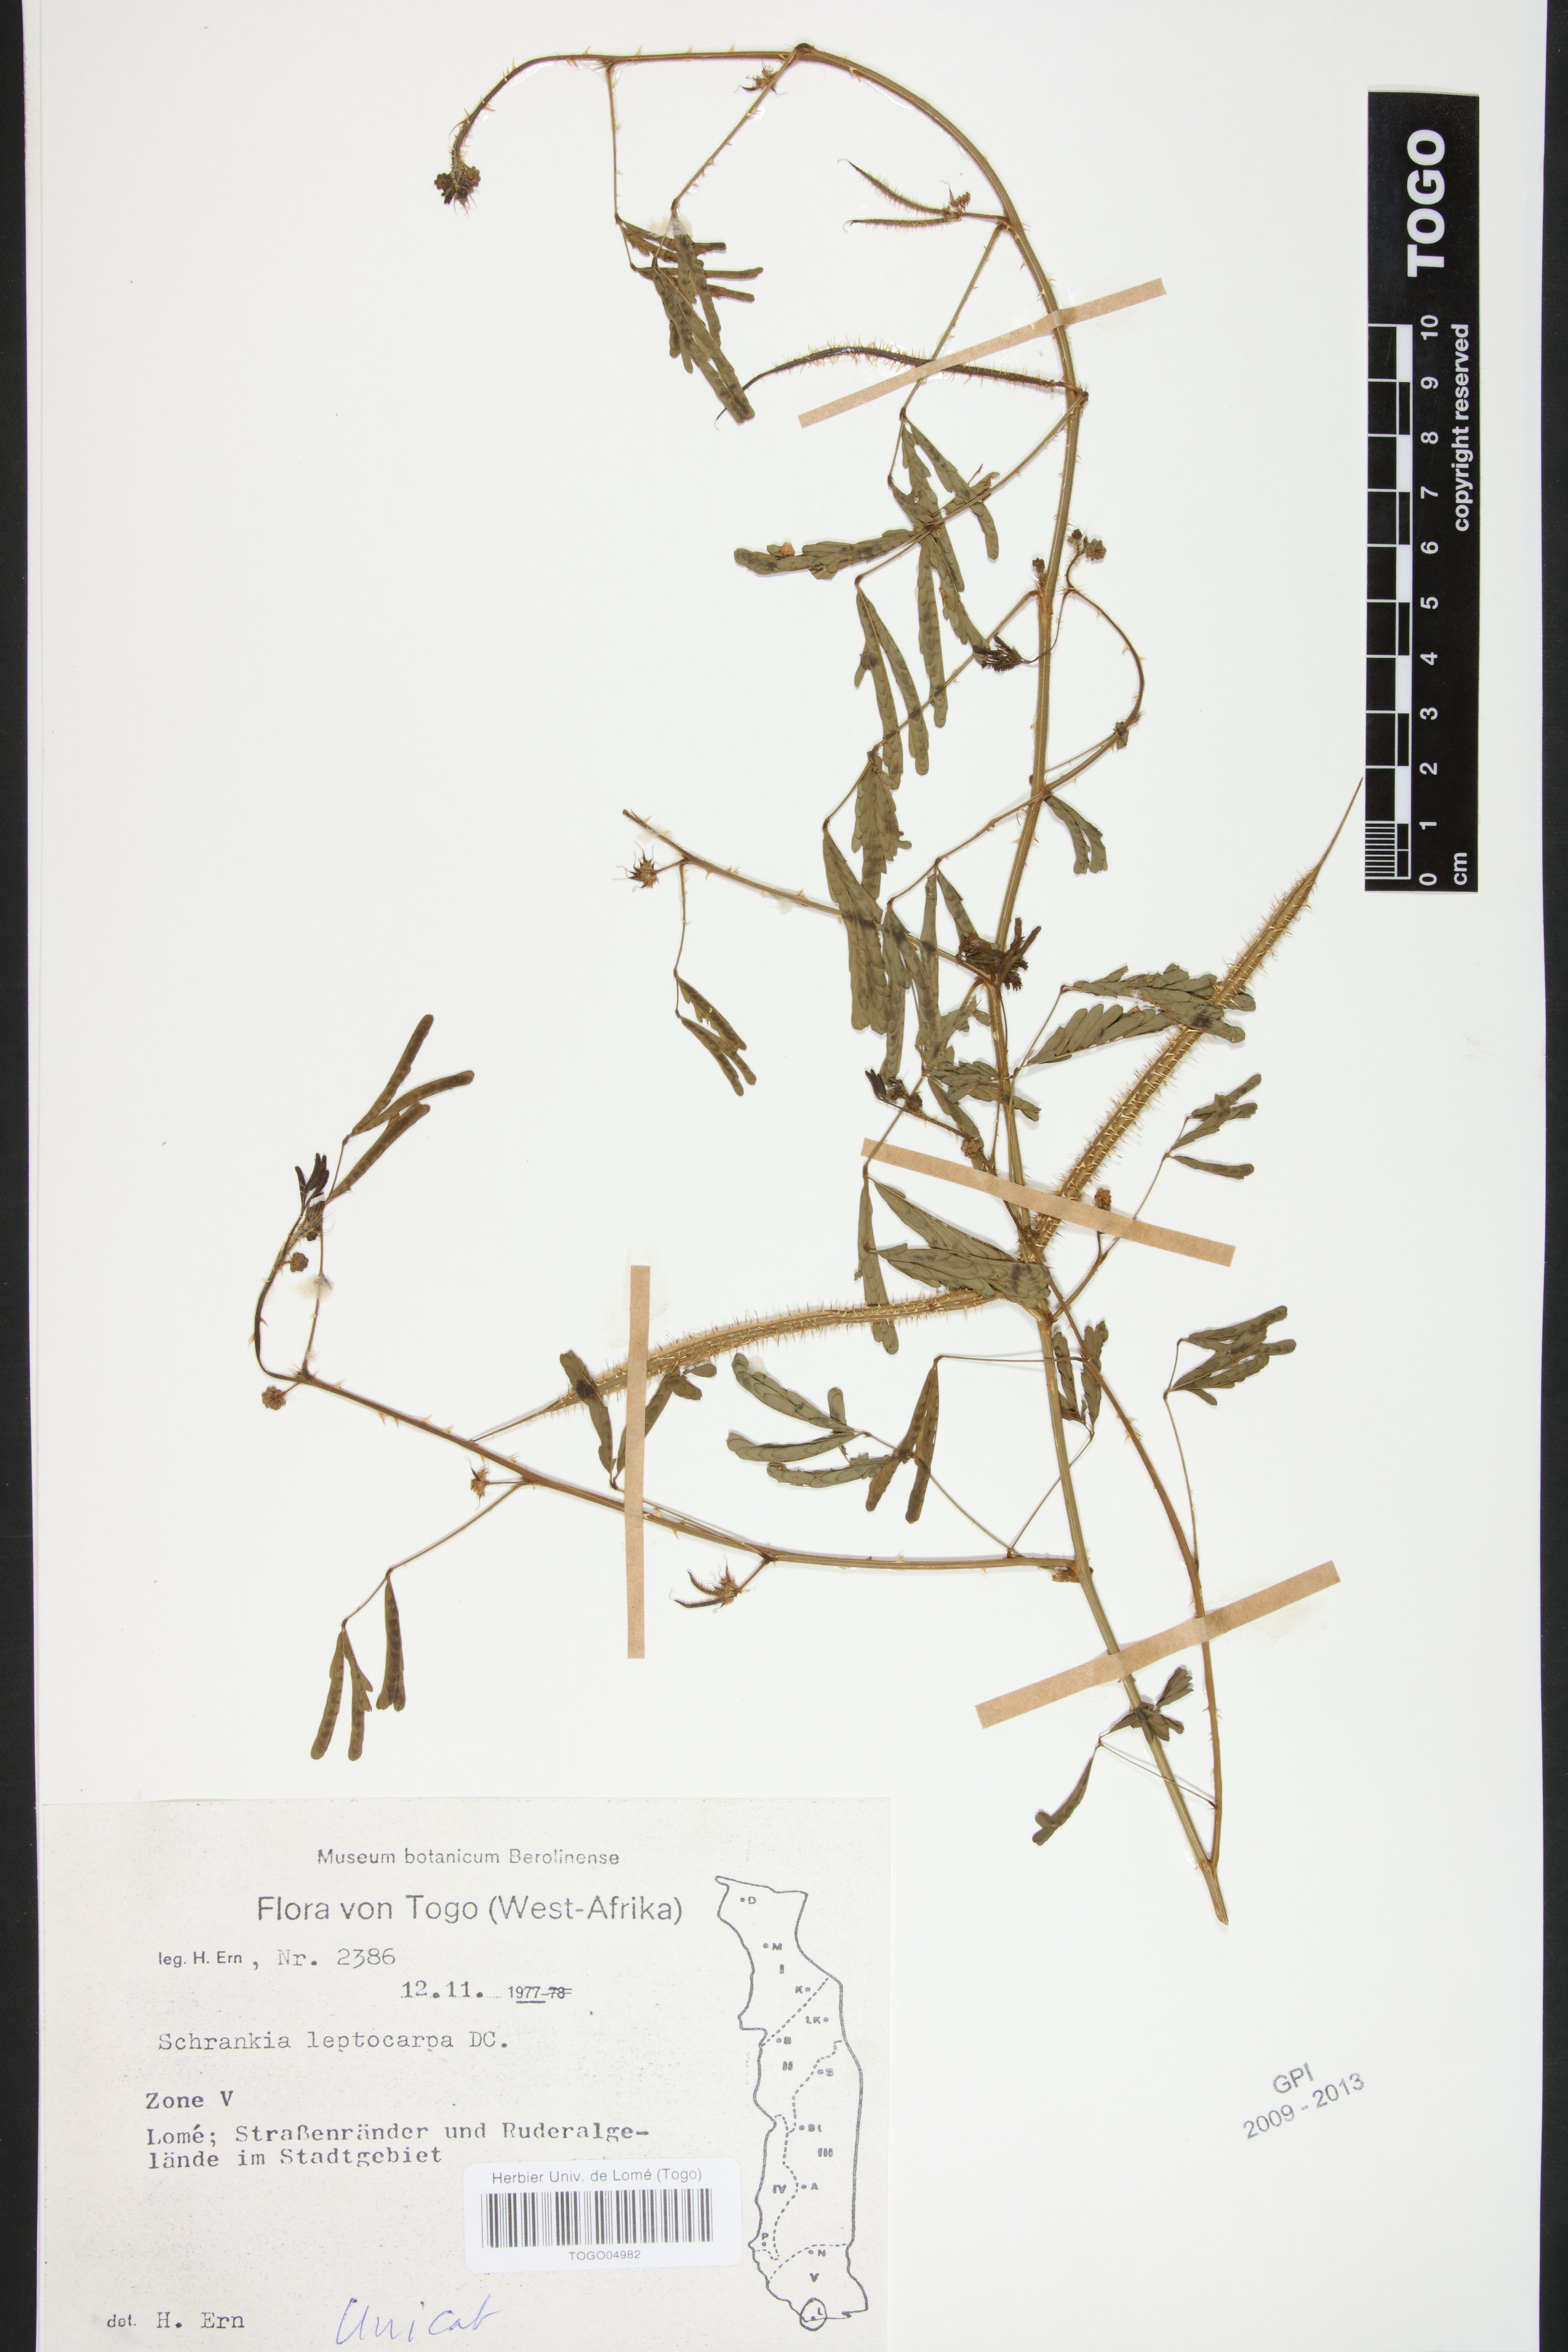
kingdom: Plantae
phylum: Tracheophyta
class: Magnoliopsida
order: Fabales
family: Fabaceae
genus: Mimosa
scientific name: Mimosa candollei
